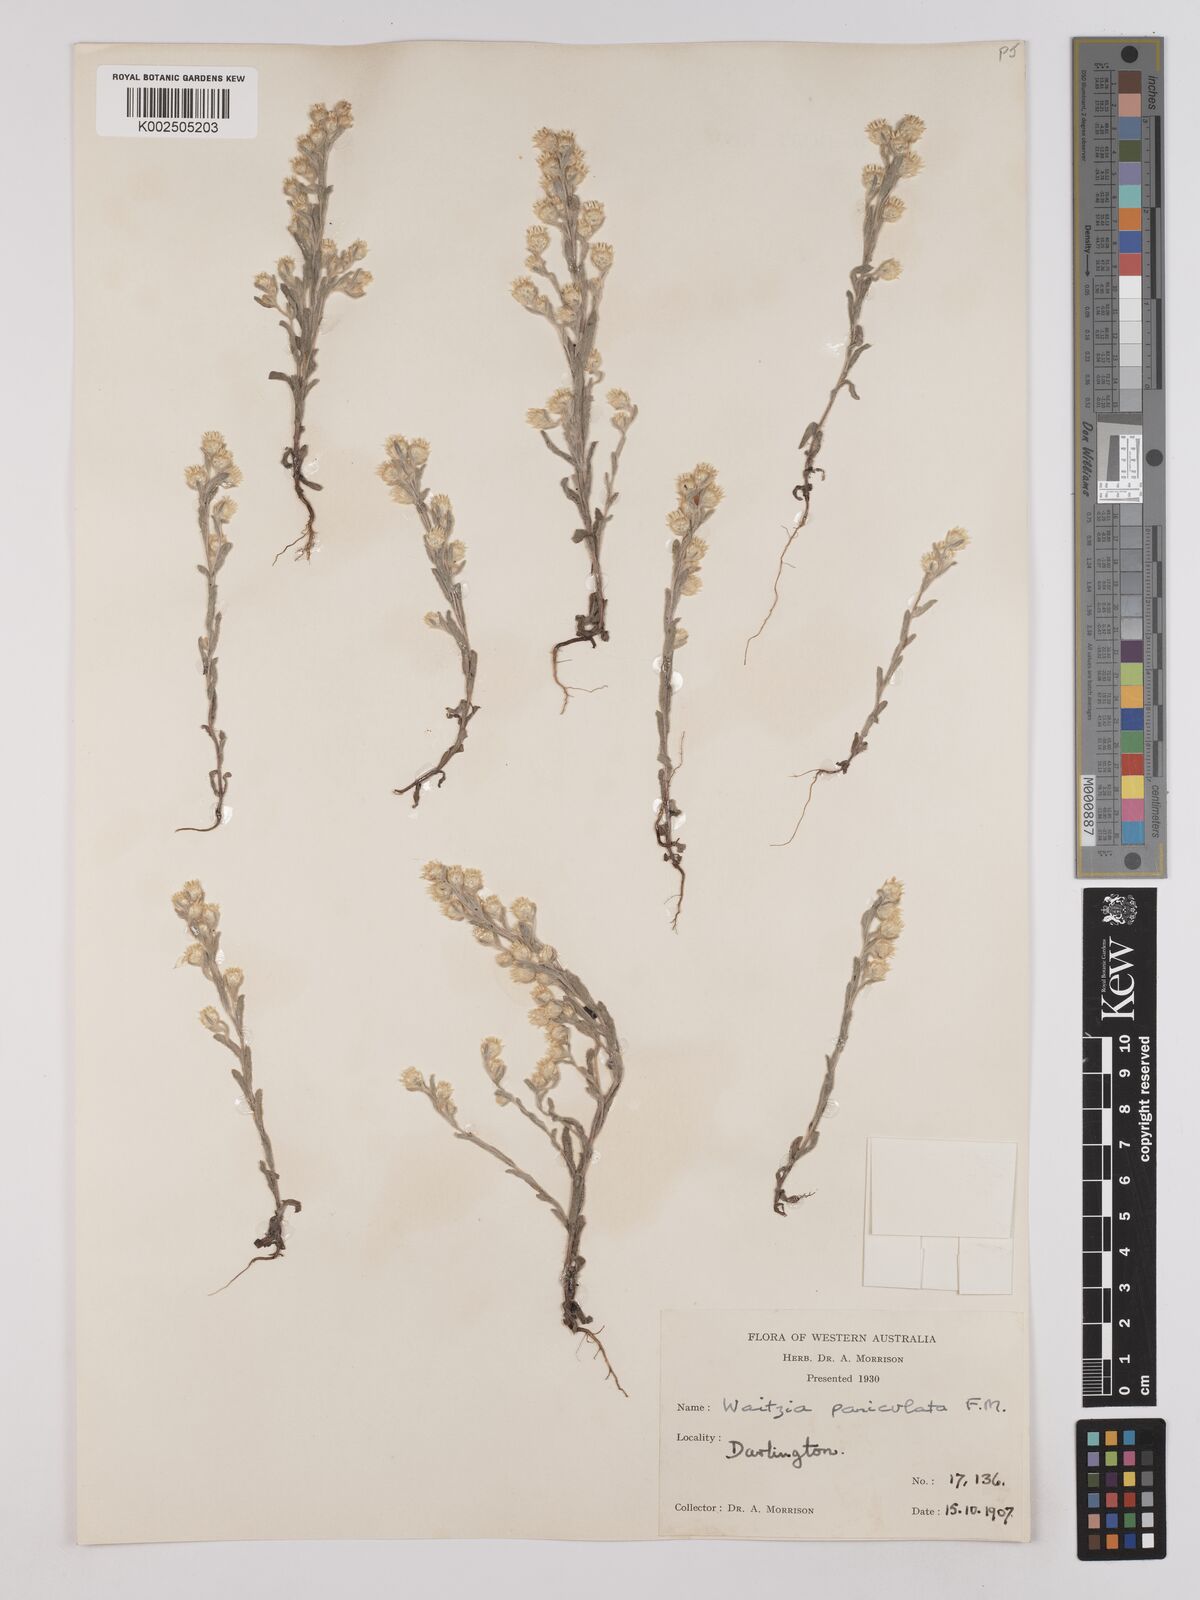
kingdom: Plantae
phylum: Tracheophyta
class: Magnoliopsida
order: Asterales
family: Asteraceae
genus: Pterochaeta
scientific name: Pterochaeta paniculata
